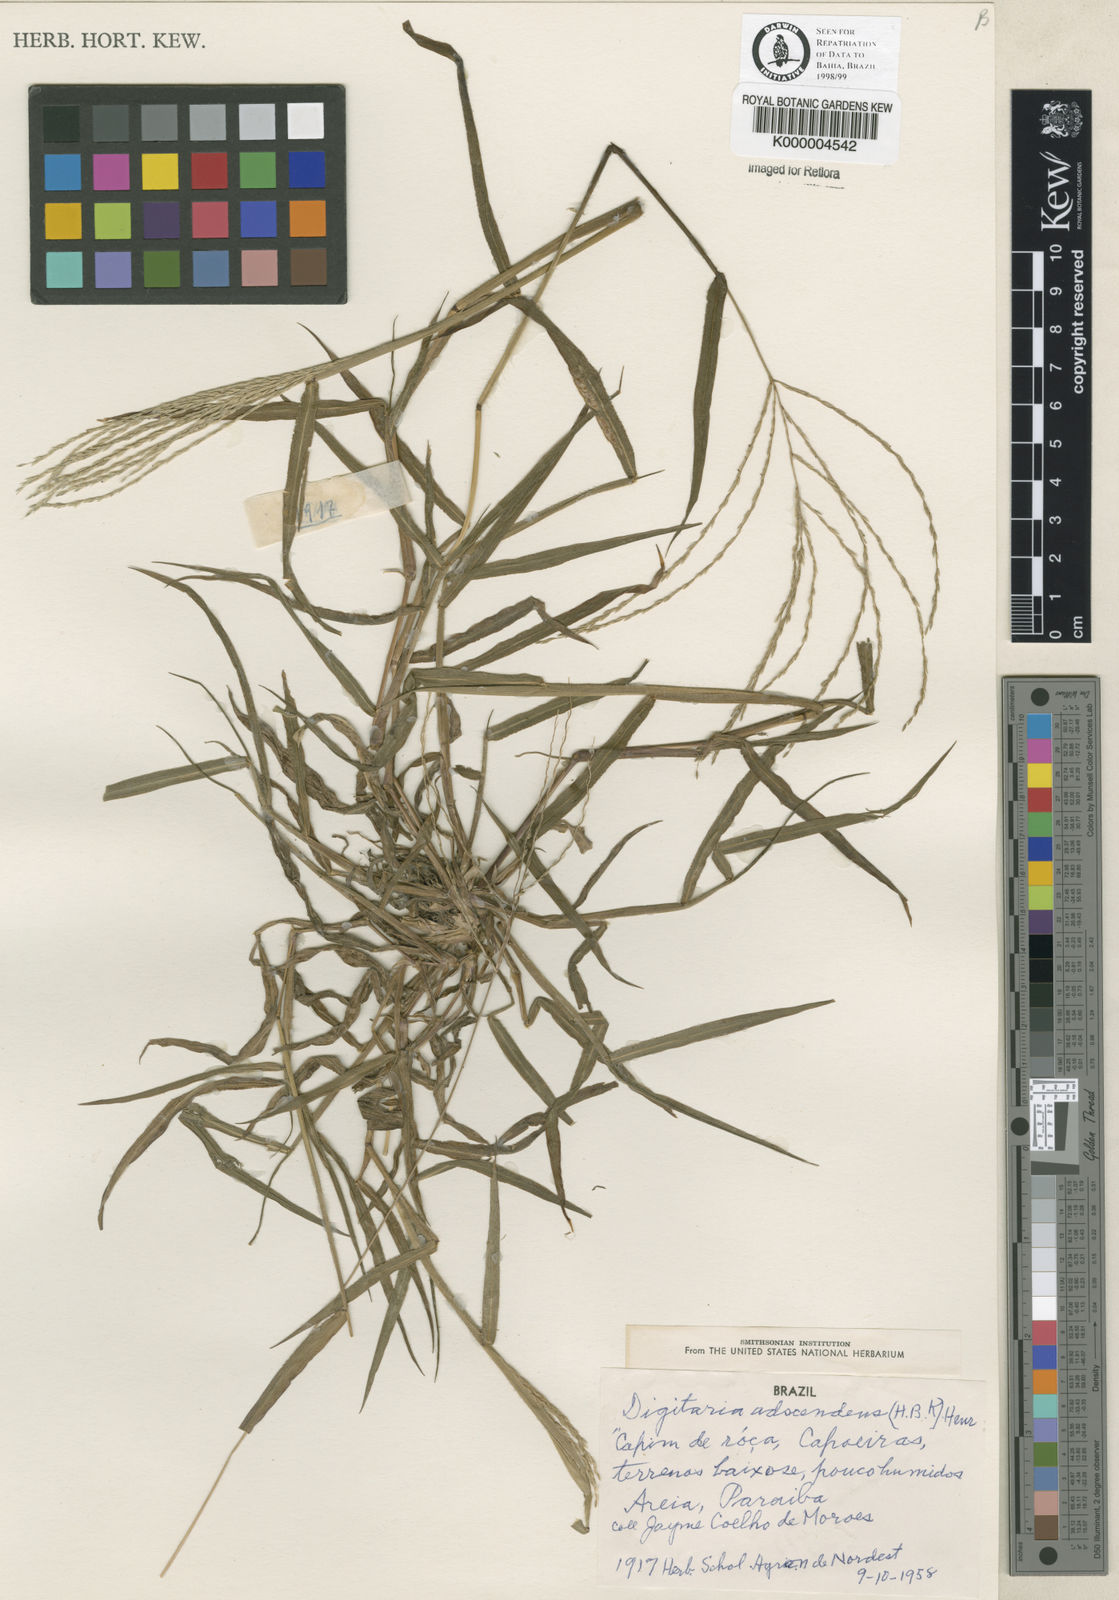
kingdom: Plantae
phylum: Tracheophyta
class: Liliopsida
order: Poales
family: Poaceae
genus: Digitaria
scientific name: Digitaria horizontalis
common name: Jamaican crabgrass
